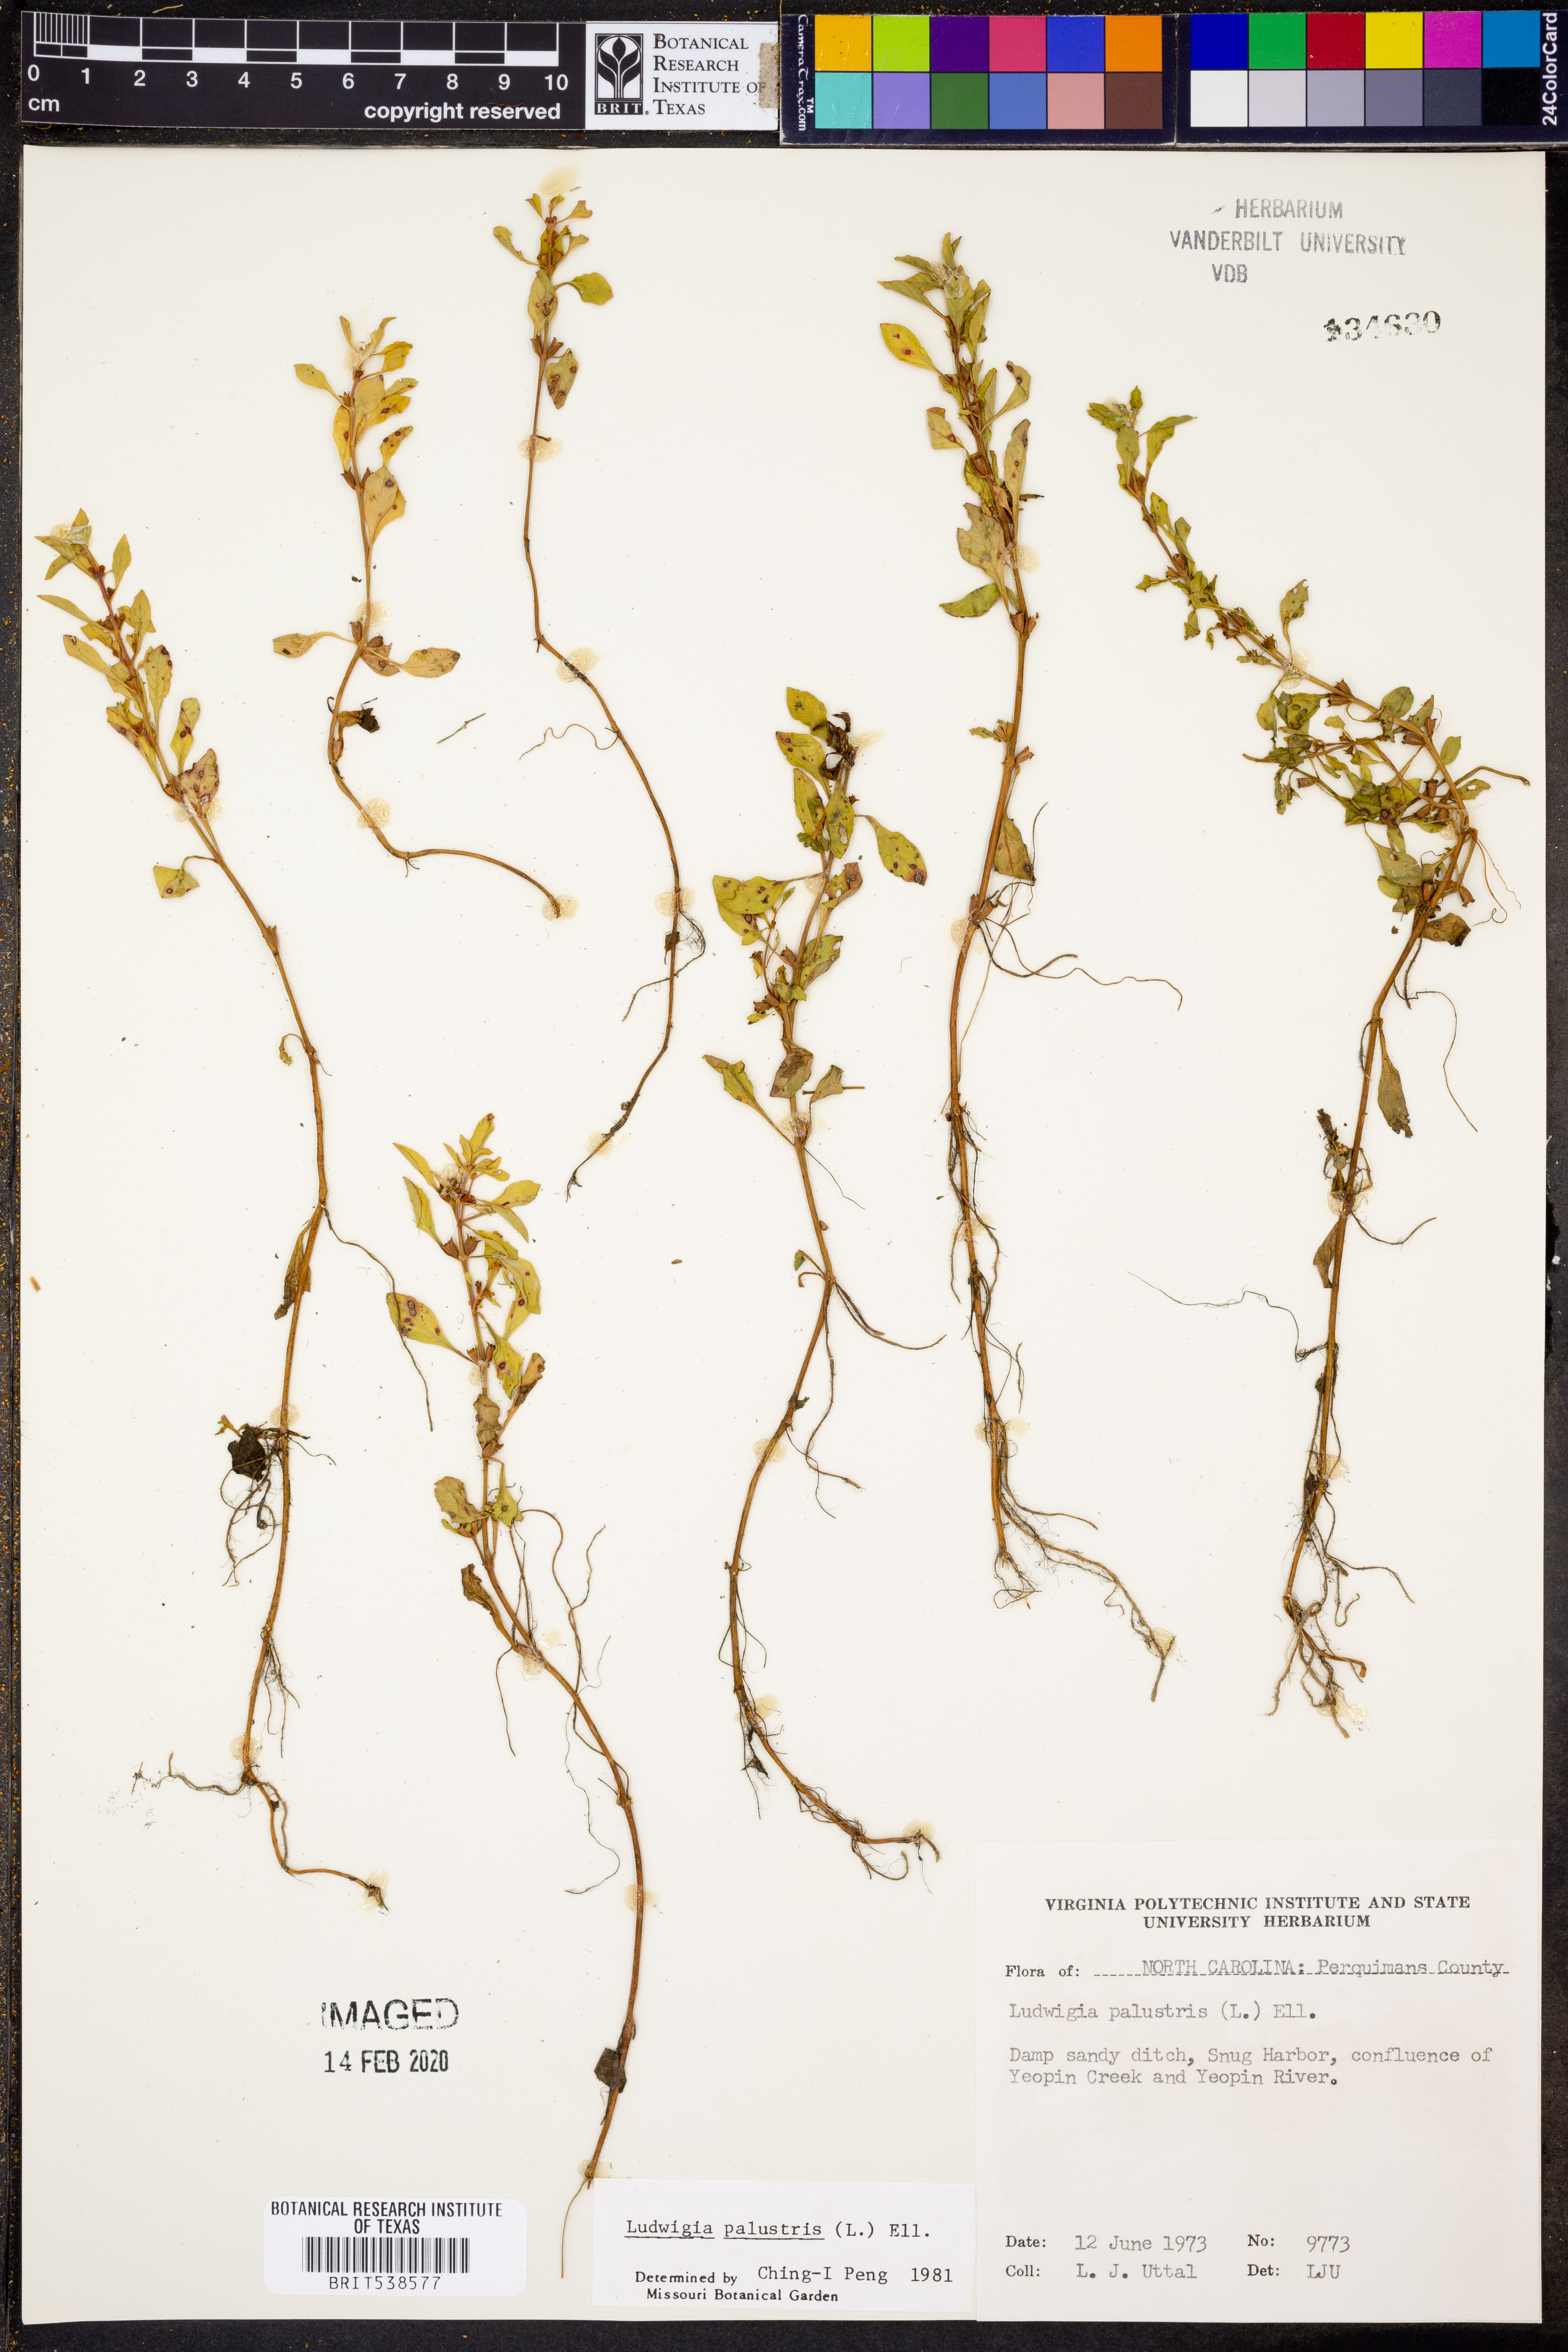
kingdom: Plantae
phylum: Tracheophyta
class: Magnoliopsida
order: Myrtales
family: Onagraceae
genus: Ludwigia
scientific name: Ludwigia palustris
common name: Hampshire-purslane
